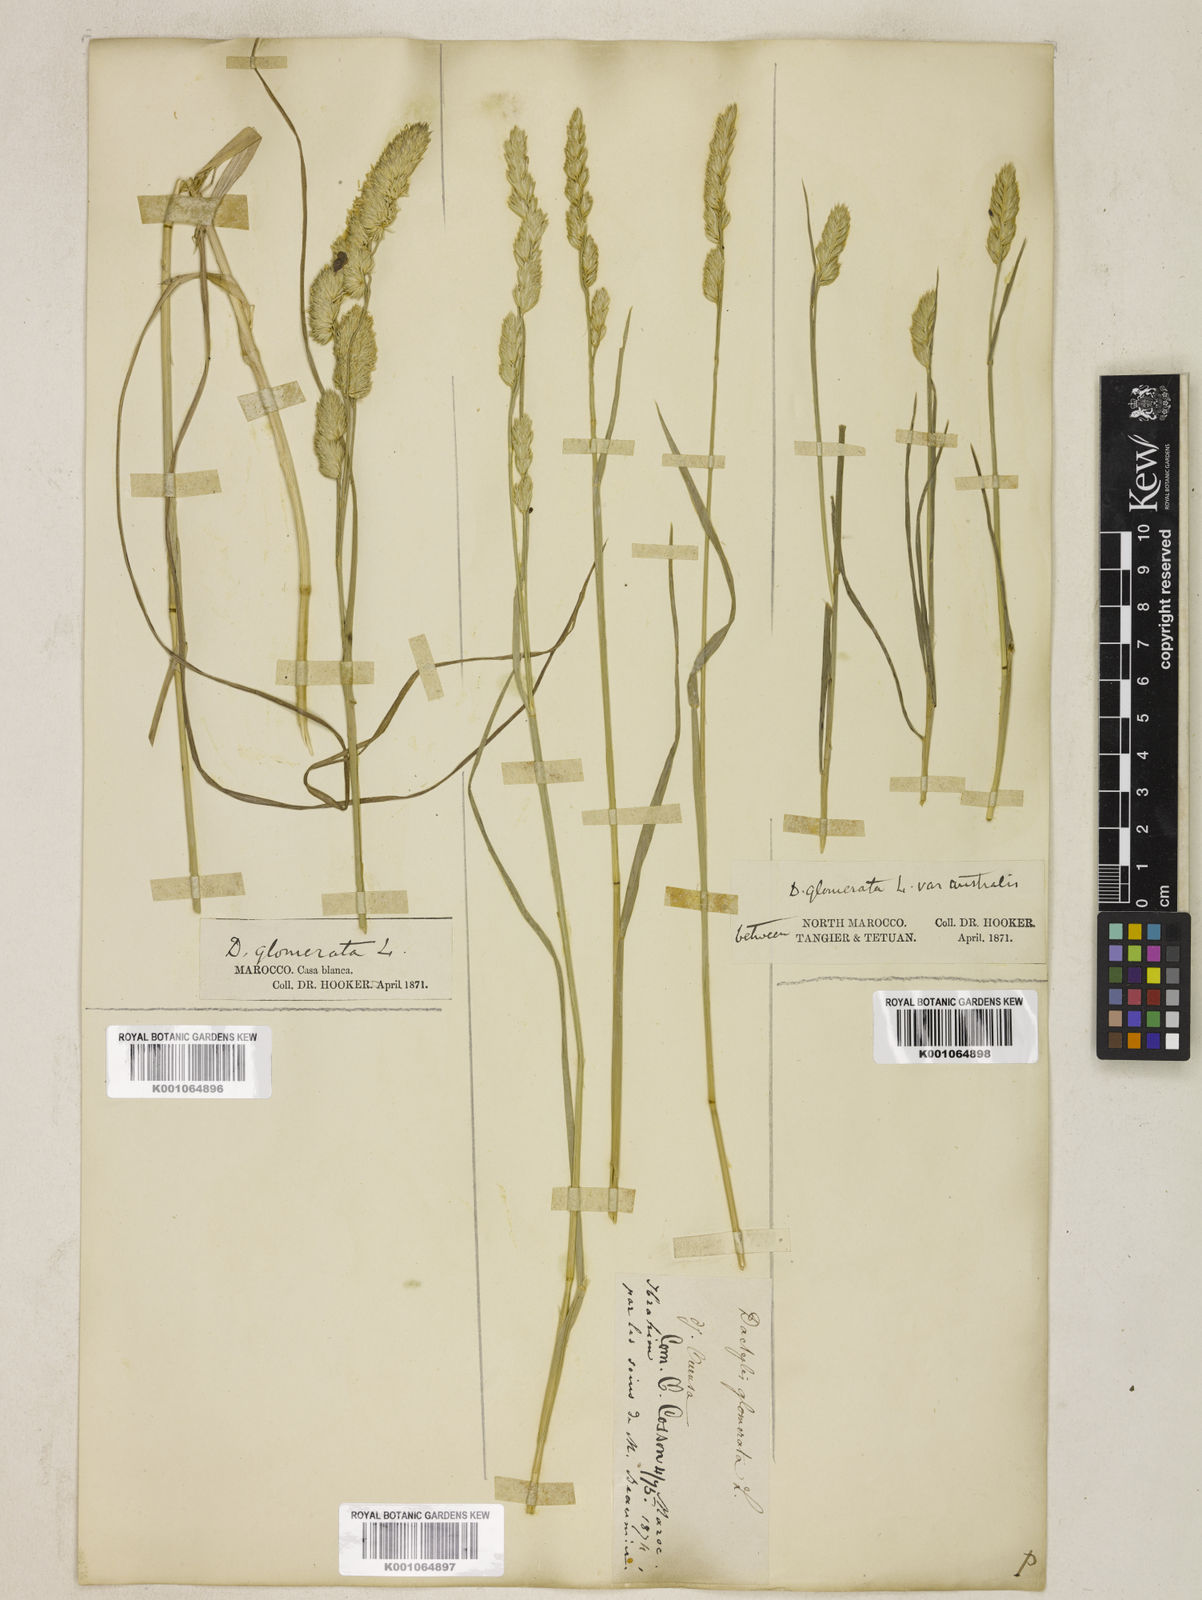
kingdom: Plantae
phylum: Tracheophyta
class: Liliopsida
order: Poales
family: Poaceae
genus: Dactylis
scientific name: Dactylis glomerata
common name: Orchardgrass
